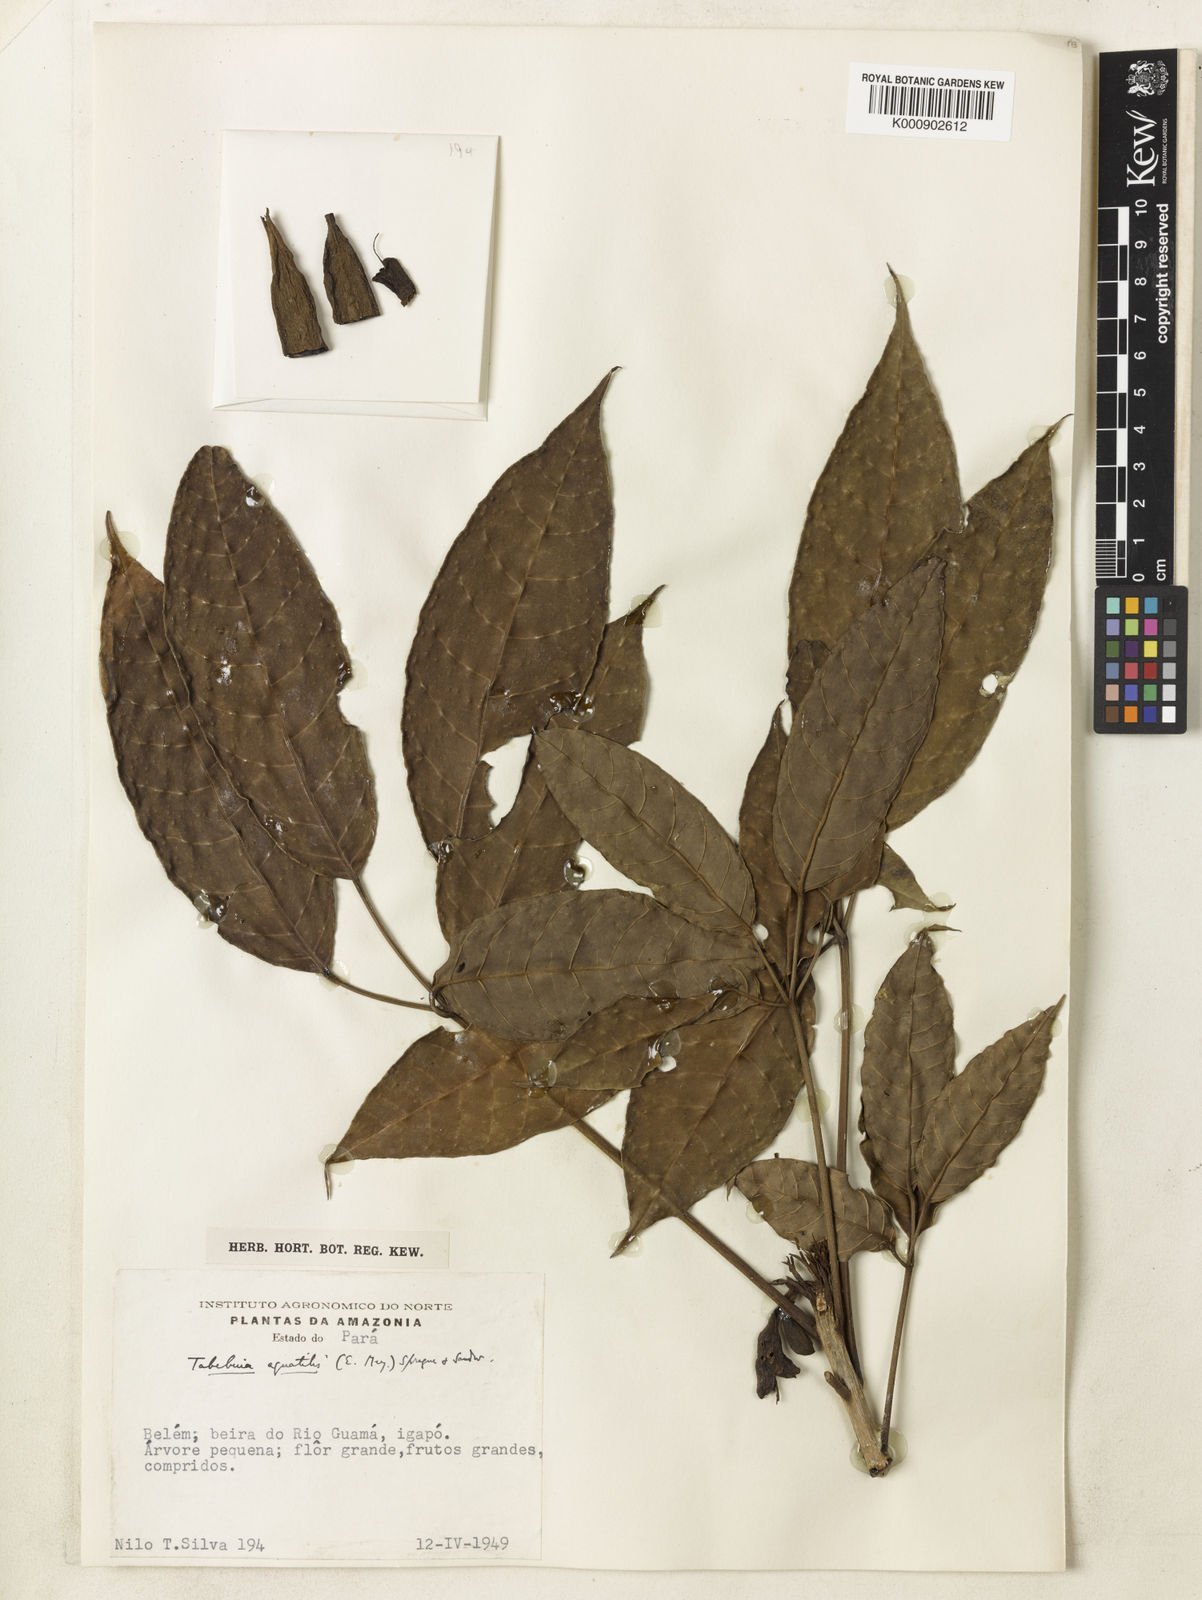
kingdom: Plantae
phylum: Tracheophyta
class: Magnoliopsida
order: Lamiales
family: Bignoniaceae
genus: Tabebuia
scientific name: Tabebuia fluviatilis
